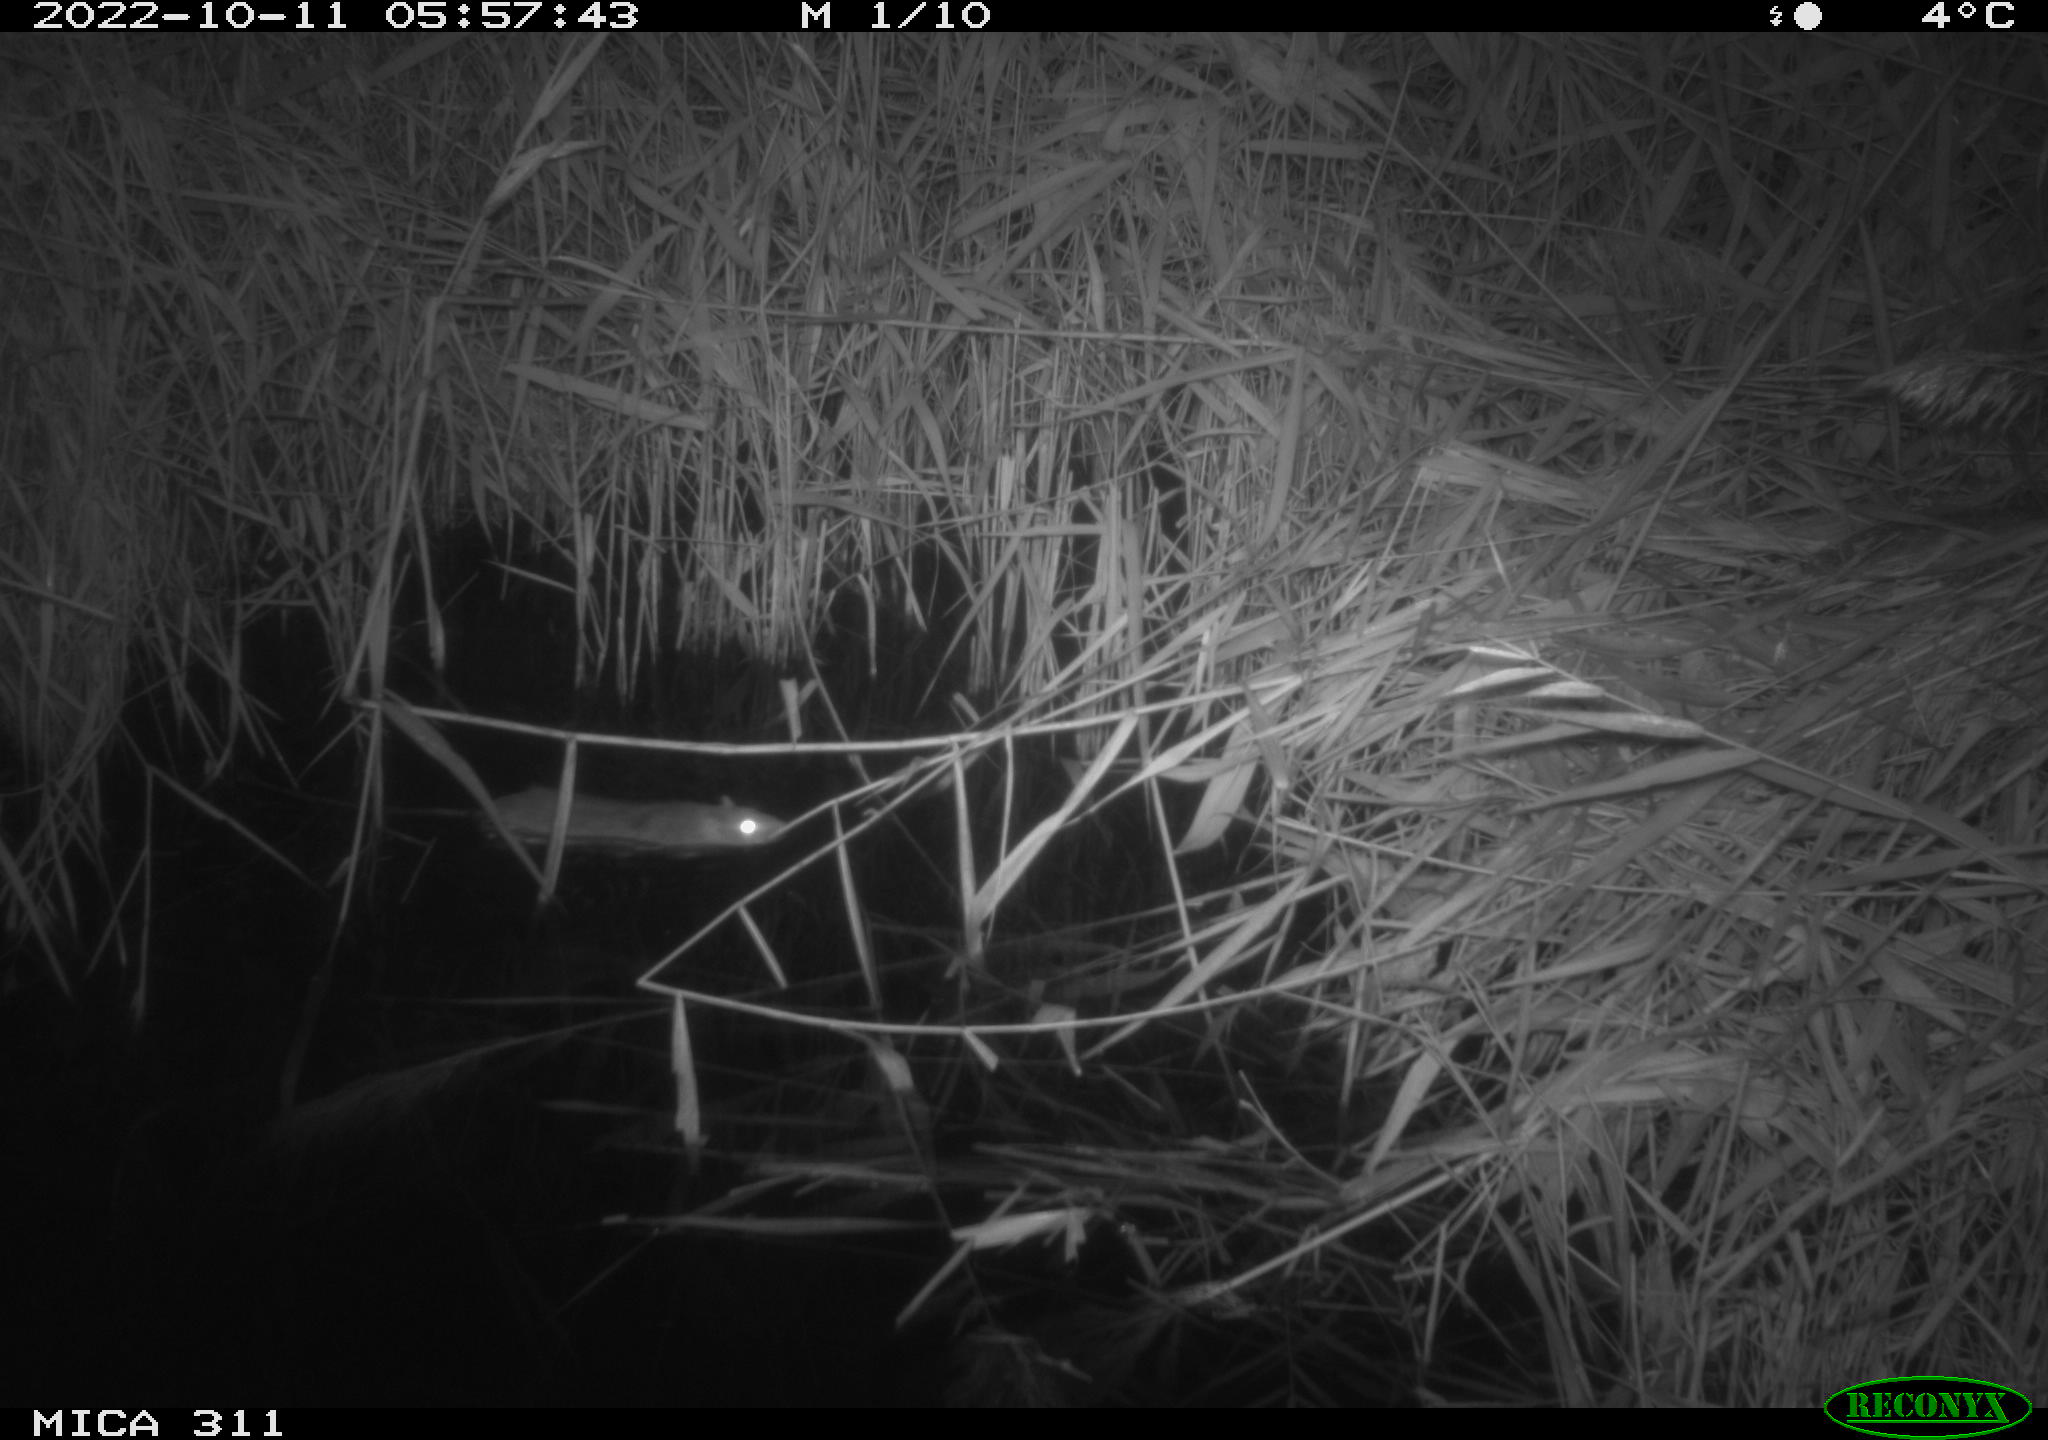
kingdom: Animalia
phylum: Chordata
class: Mammalia
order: Rodentia
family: Muridae
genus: Rattus
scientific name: Rattus norvegicus
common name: Brown rat
